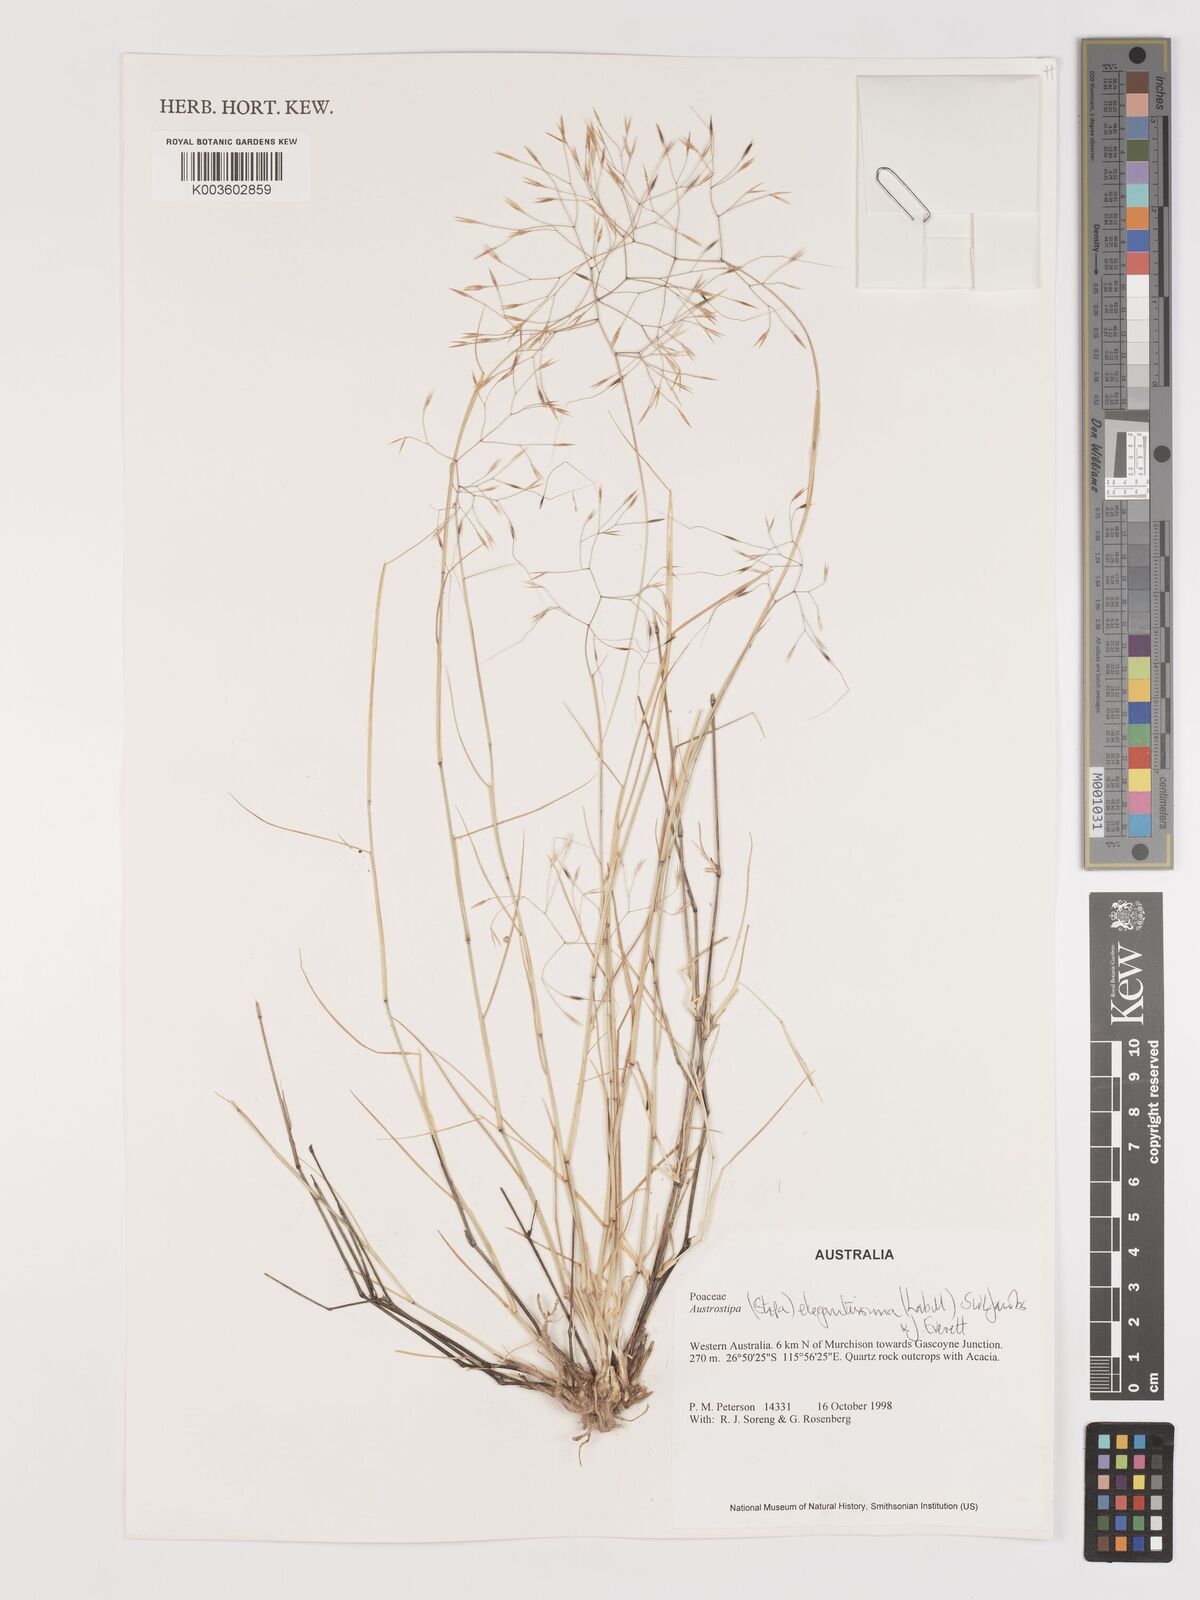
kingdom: Plantae
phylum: Tracheophyta
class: Liliopsida
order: Poales
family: Poaceae
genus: Austrostipa
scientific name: Austrostipa elegantissima
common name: Feather spear grass
